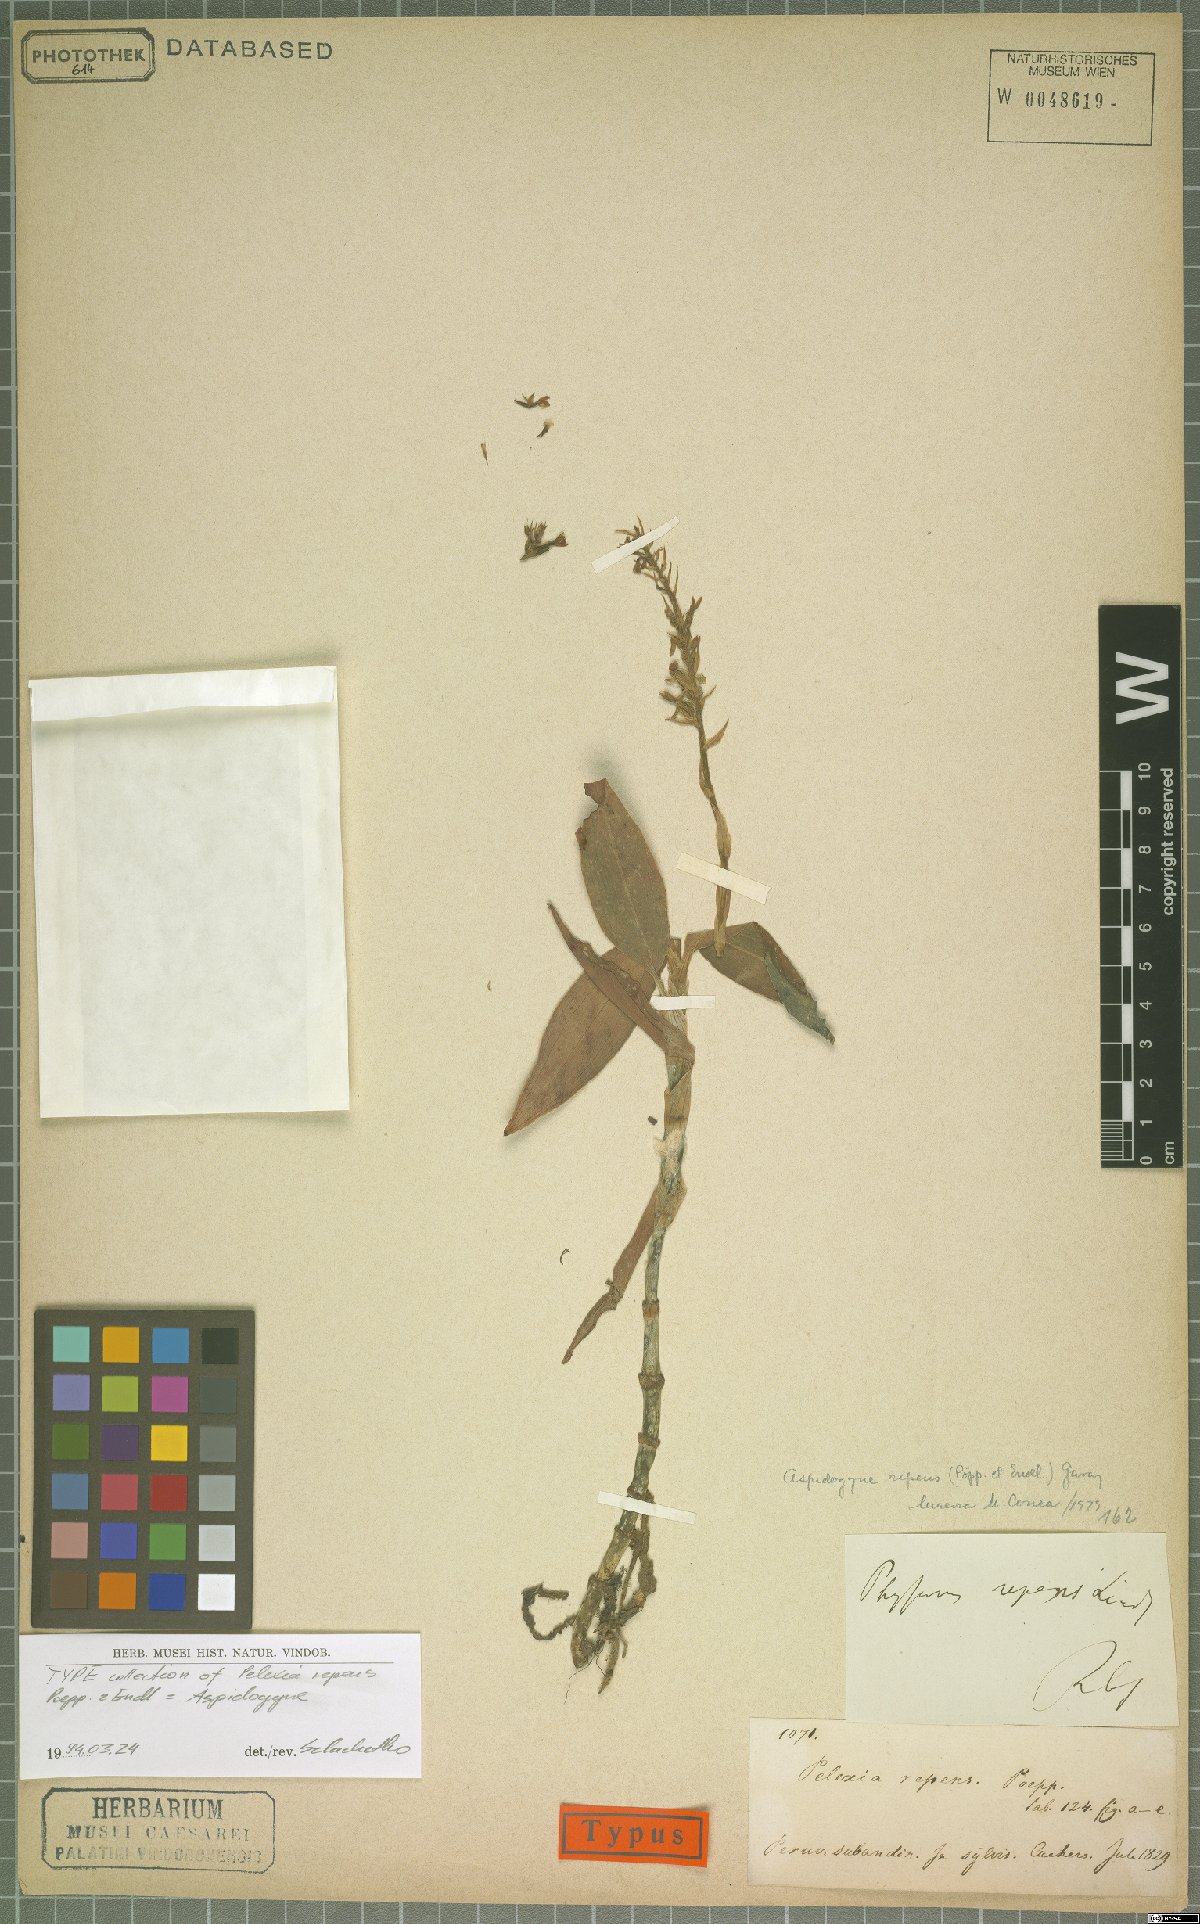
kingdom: Plantae
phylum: Tracheophyta
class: Liliopsida
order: Asparagales
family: Orchidaceae
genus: Aspidogyne
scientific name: Aspidogyne repens
